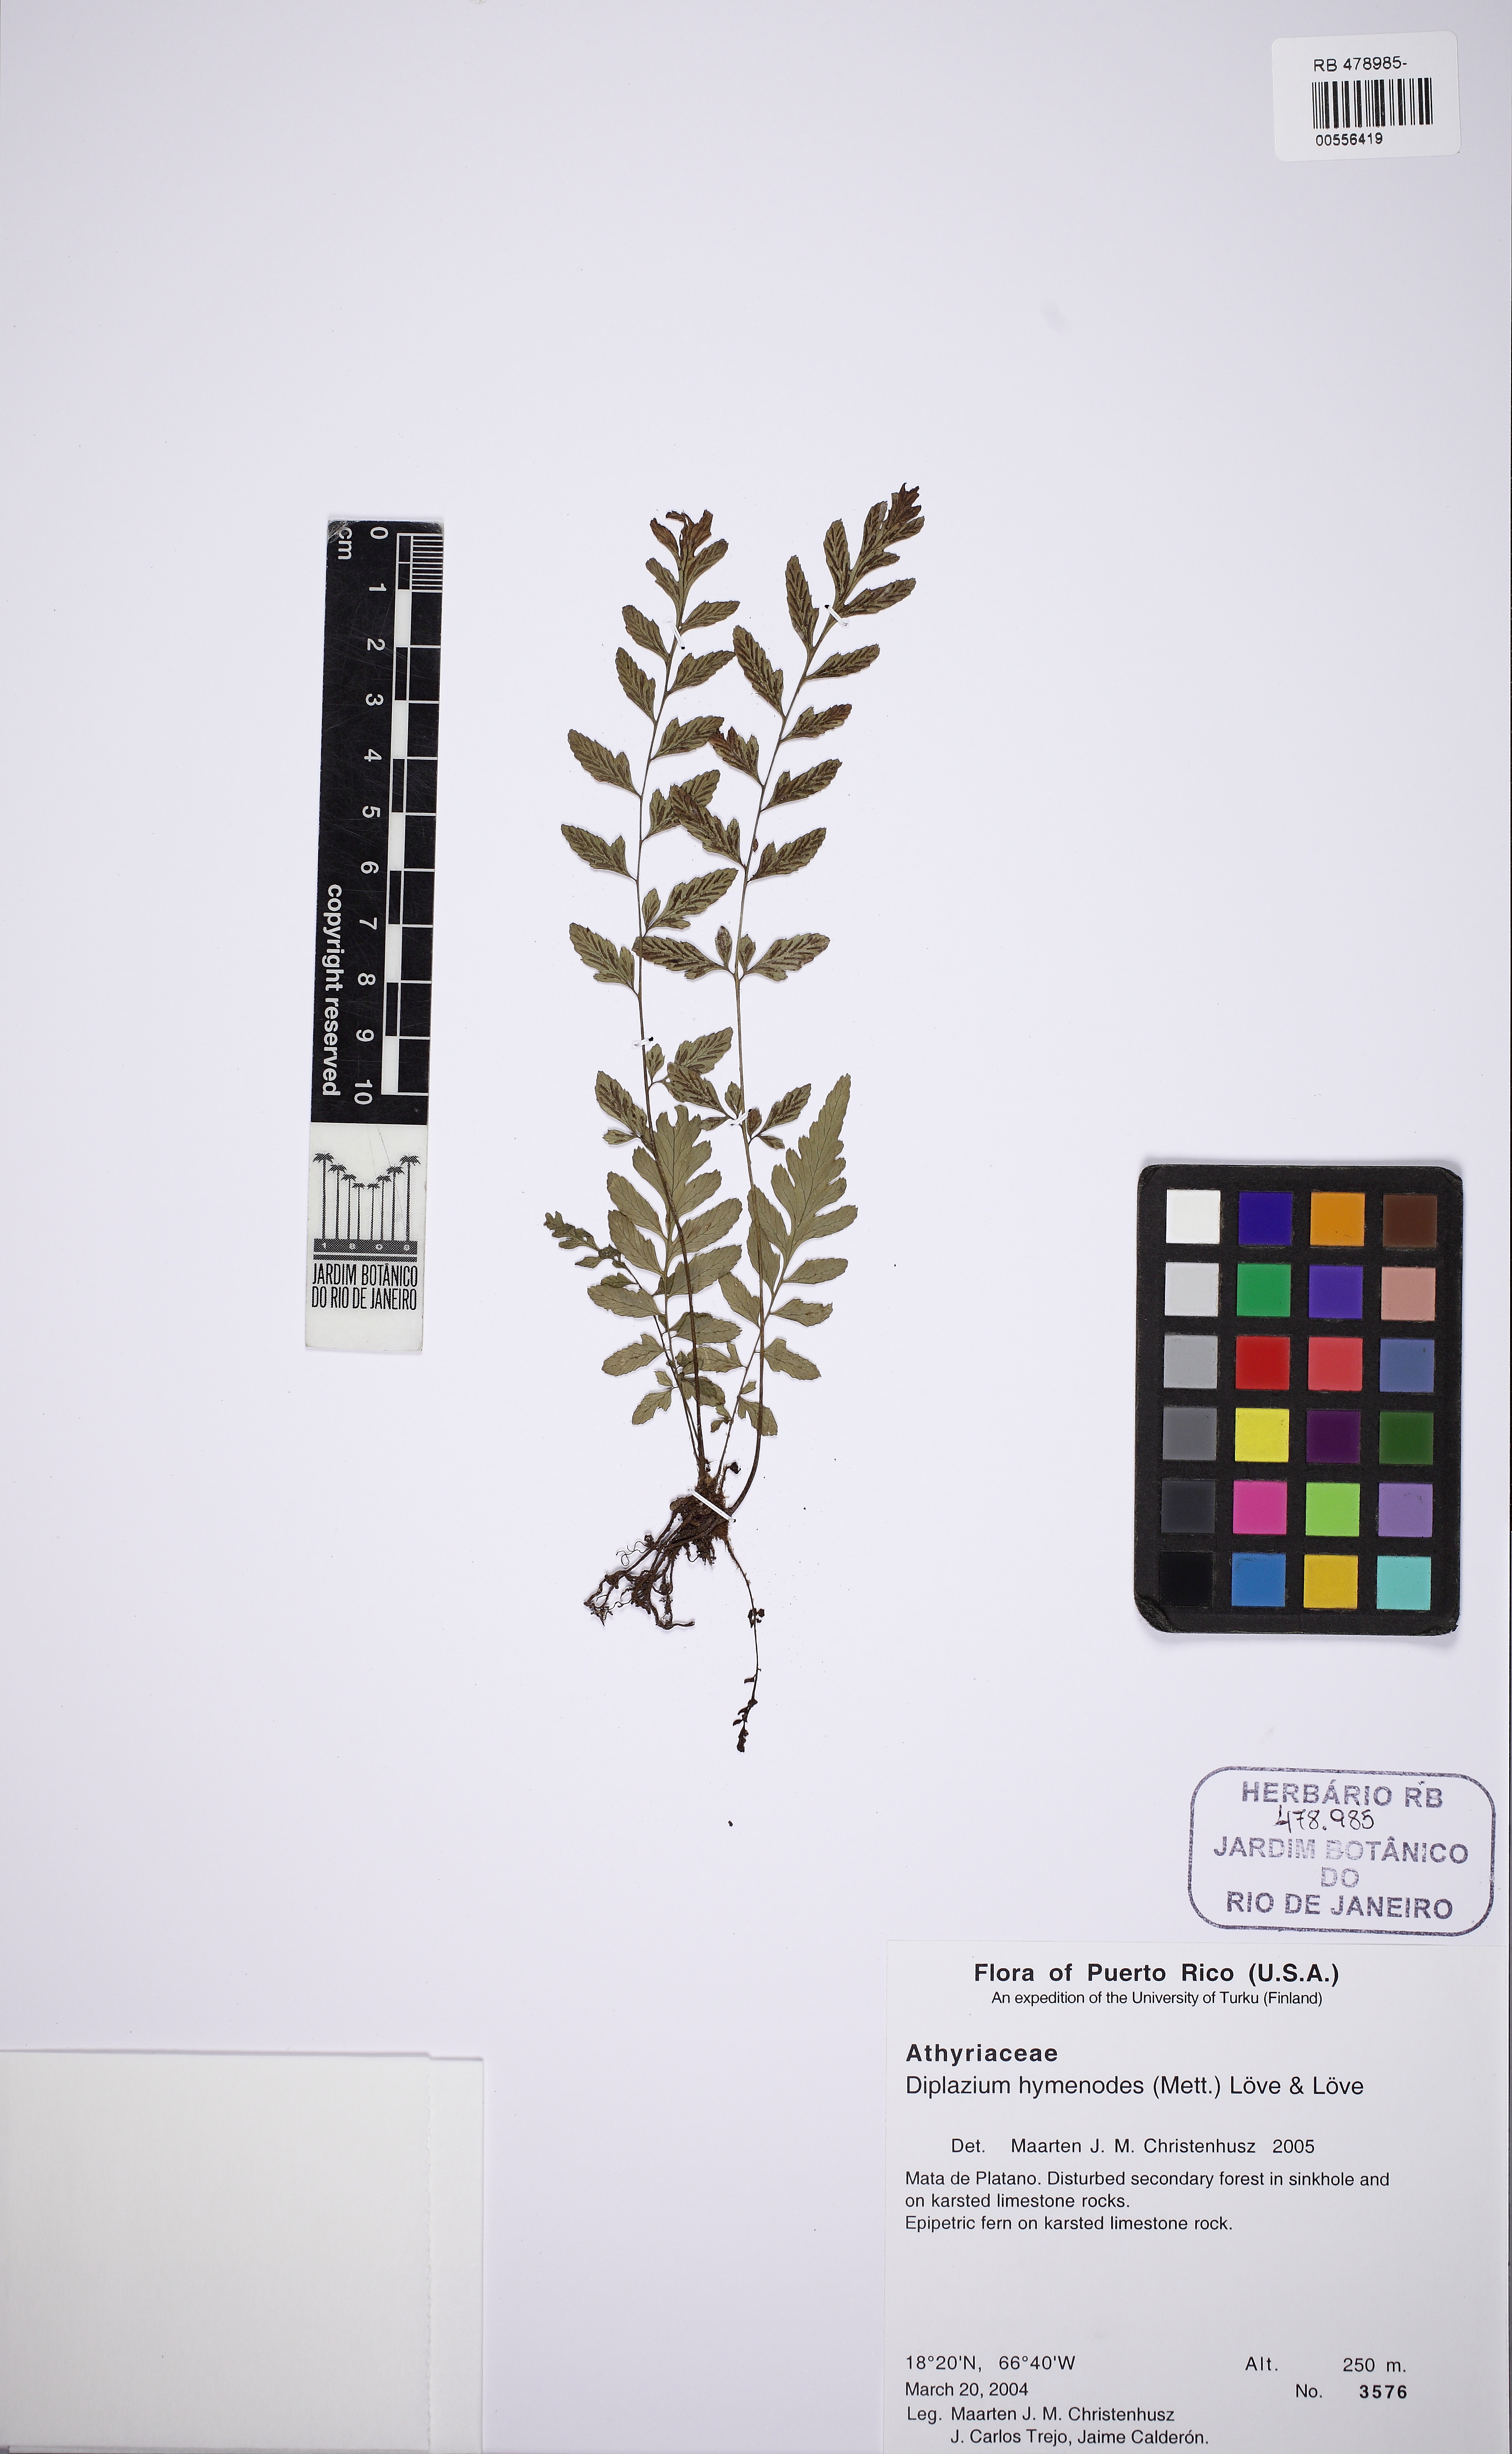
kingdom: Plantae
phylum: Tracheophyta
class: Polypodiopsida
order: Polypodiales
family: Athyriaceae
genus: Diplazium
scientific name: Diplazium hymenodes
